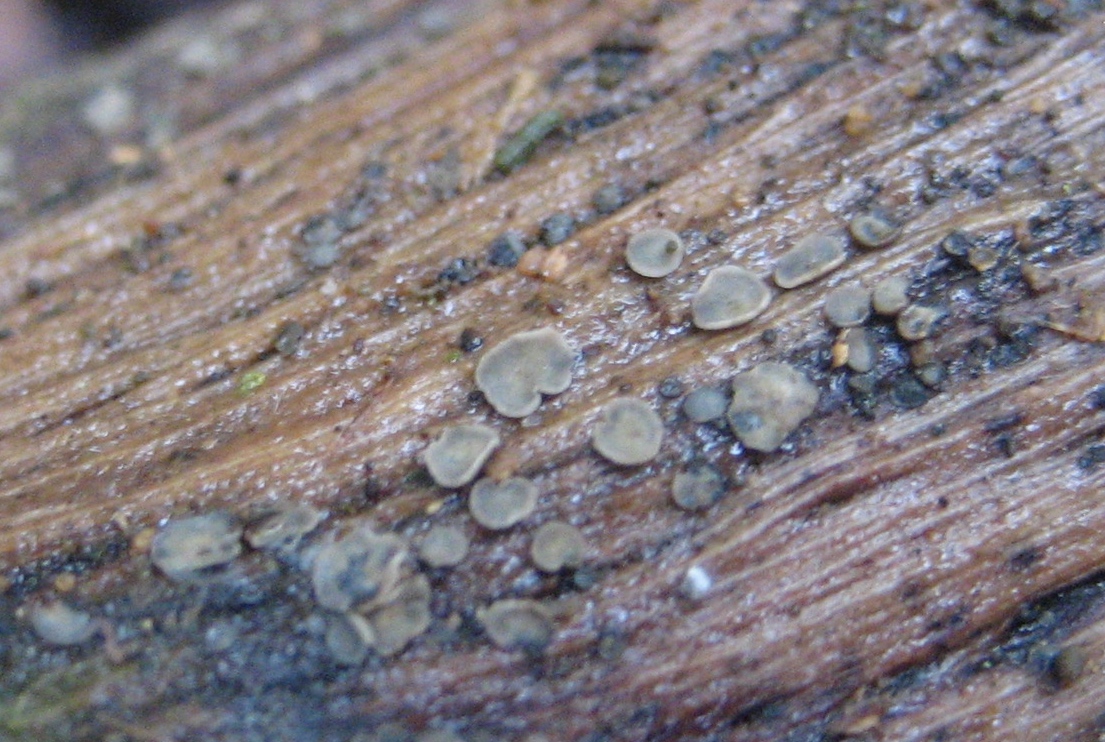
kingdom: Fungi
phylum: Ascomycota
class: Leotiomycetes
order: Helotiales
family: Mollisiaceae
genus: Mollisia
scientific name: Mollisia
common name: gråskive
